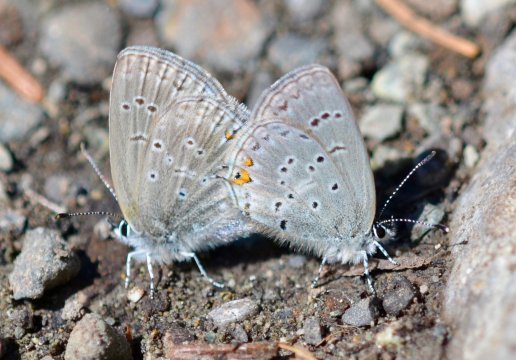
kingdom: Animalia
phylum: Arthropoda
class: Insecta
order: Lepidoptera
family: Lycaenidae
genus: Elkalyce
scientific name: Elkalyce amyntula
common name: Western Tailed-Blue
